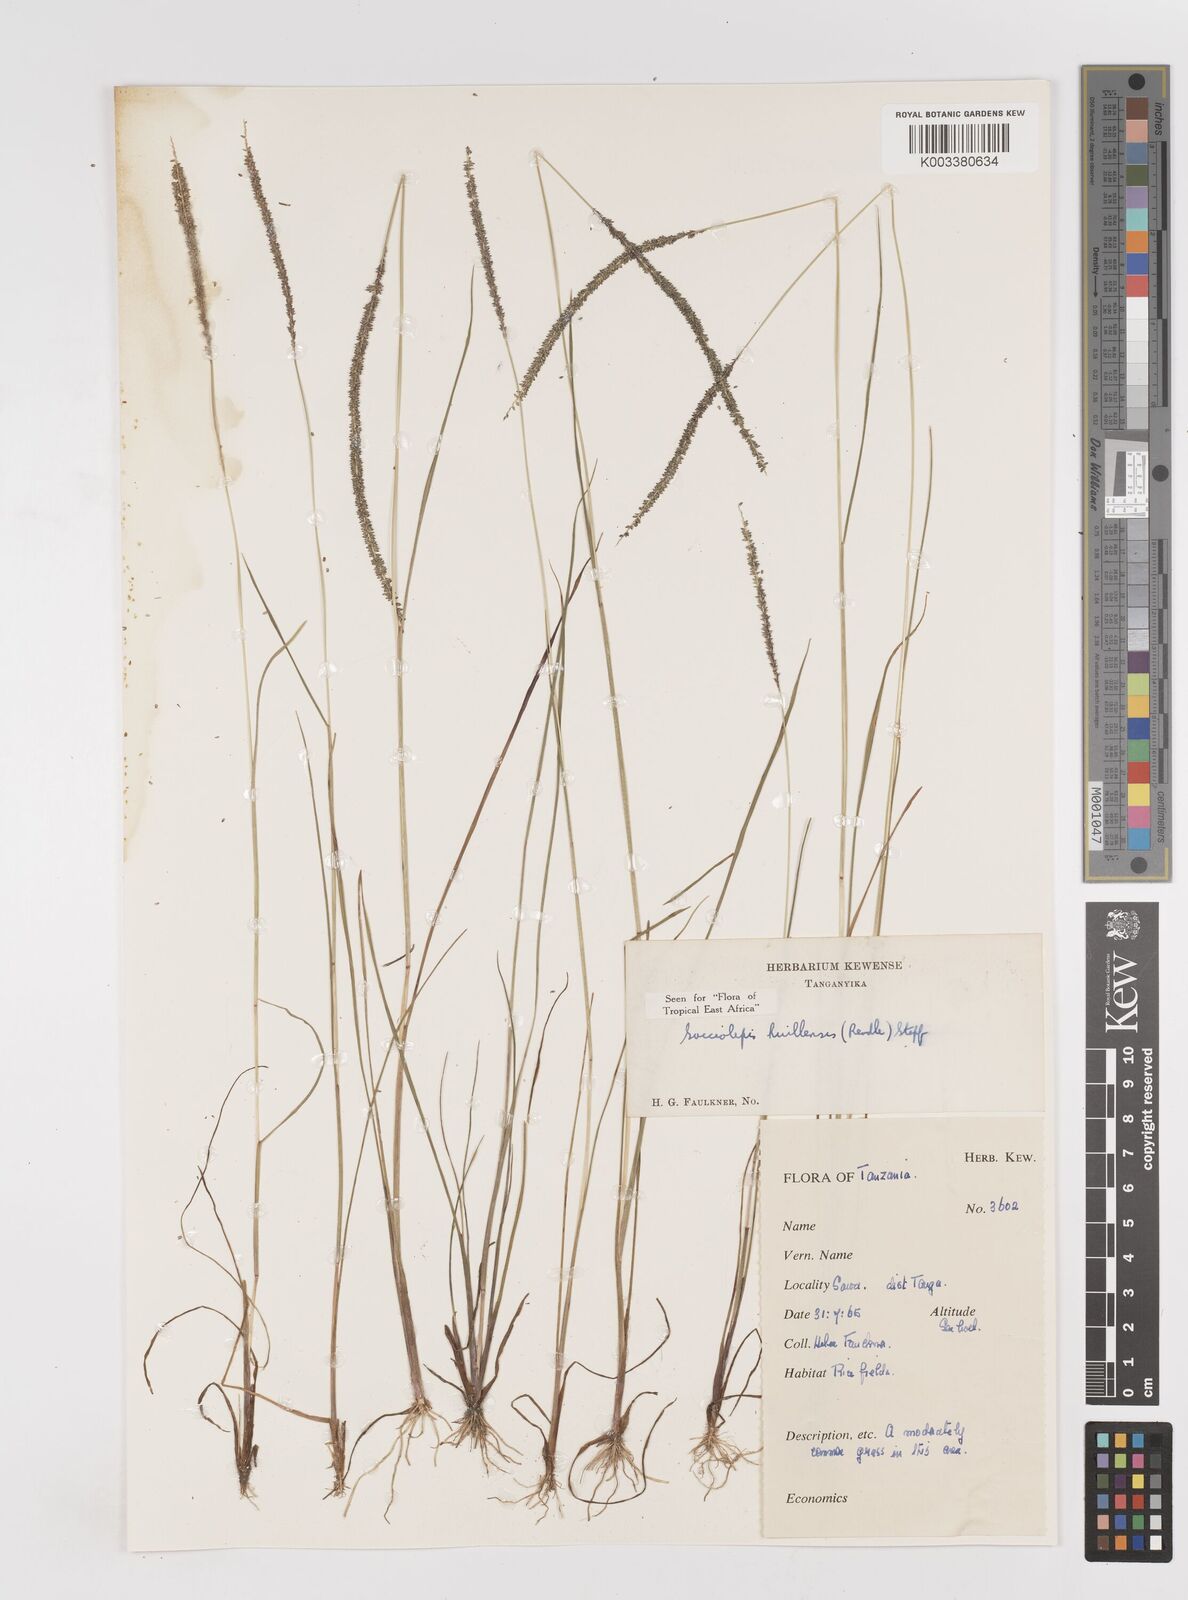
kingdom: Plantae
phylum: Tracheophyta
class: Liliopsida
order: Poales
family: Poaceae
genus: Sacciolepis
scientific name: Sacciolepis myosuroides
